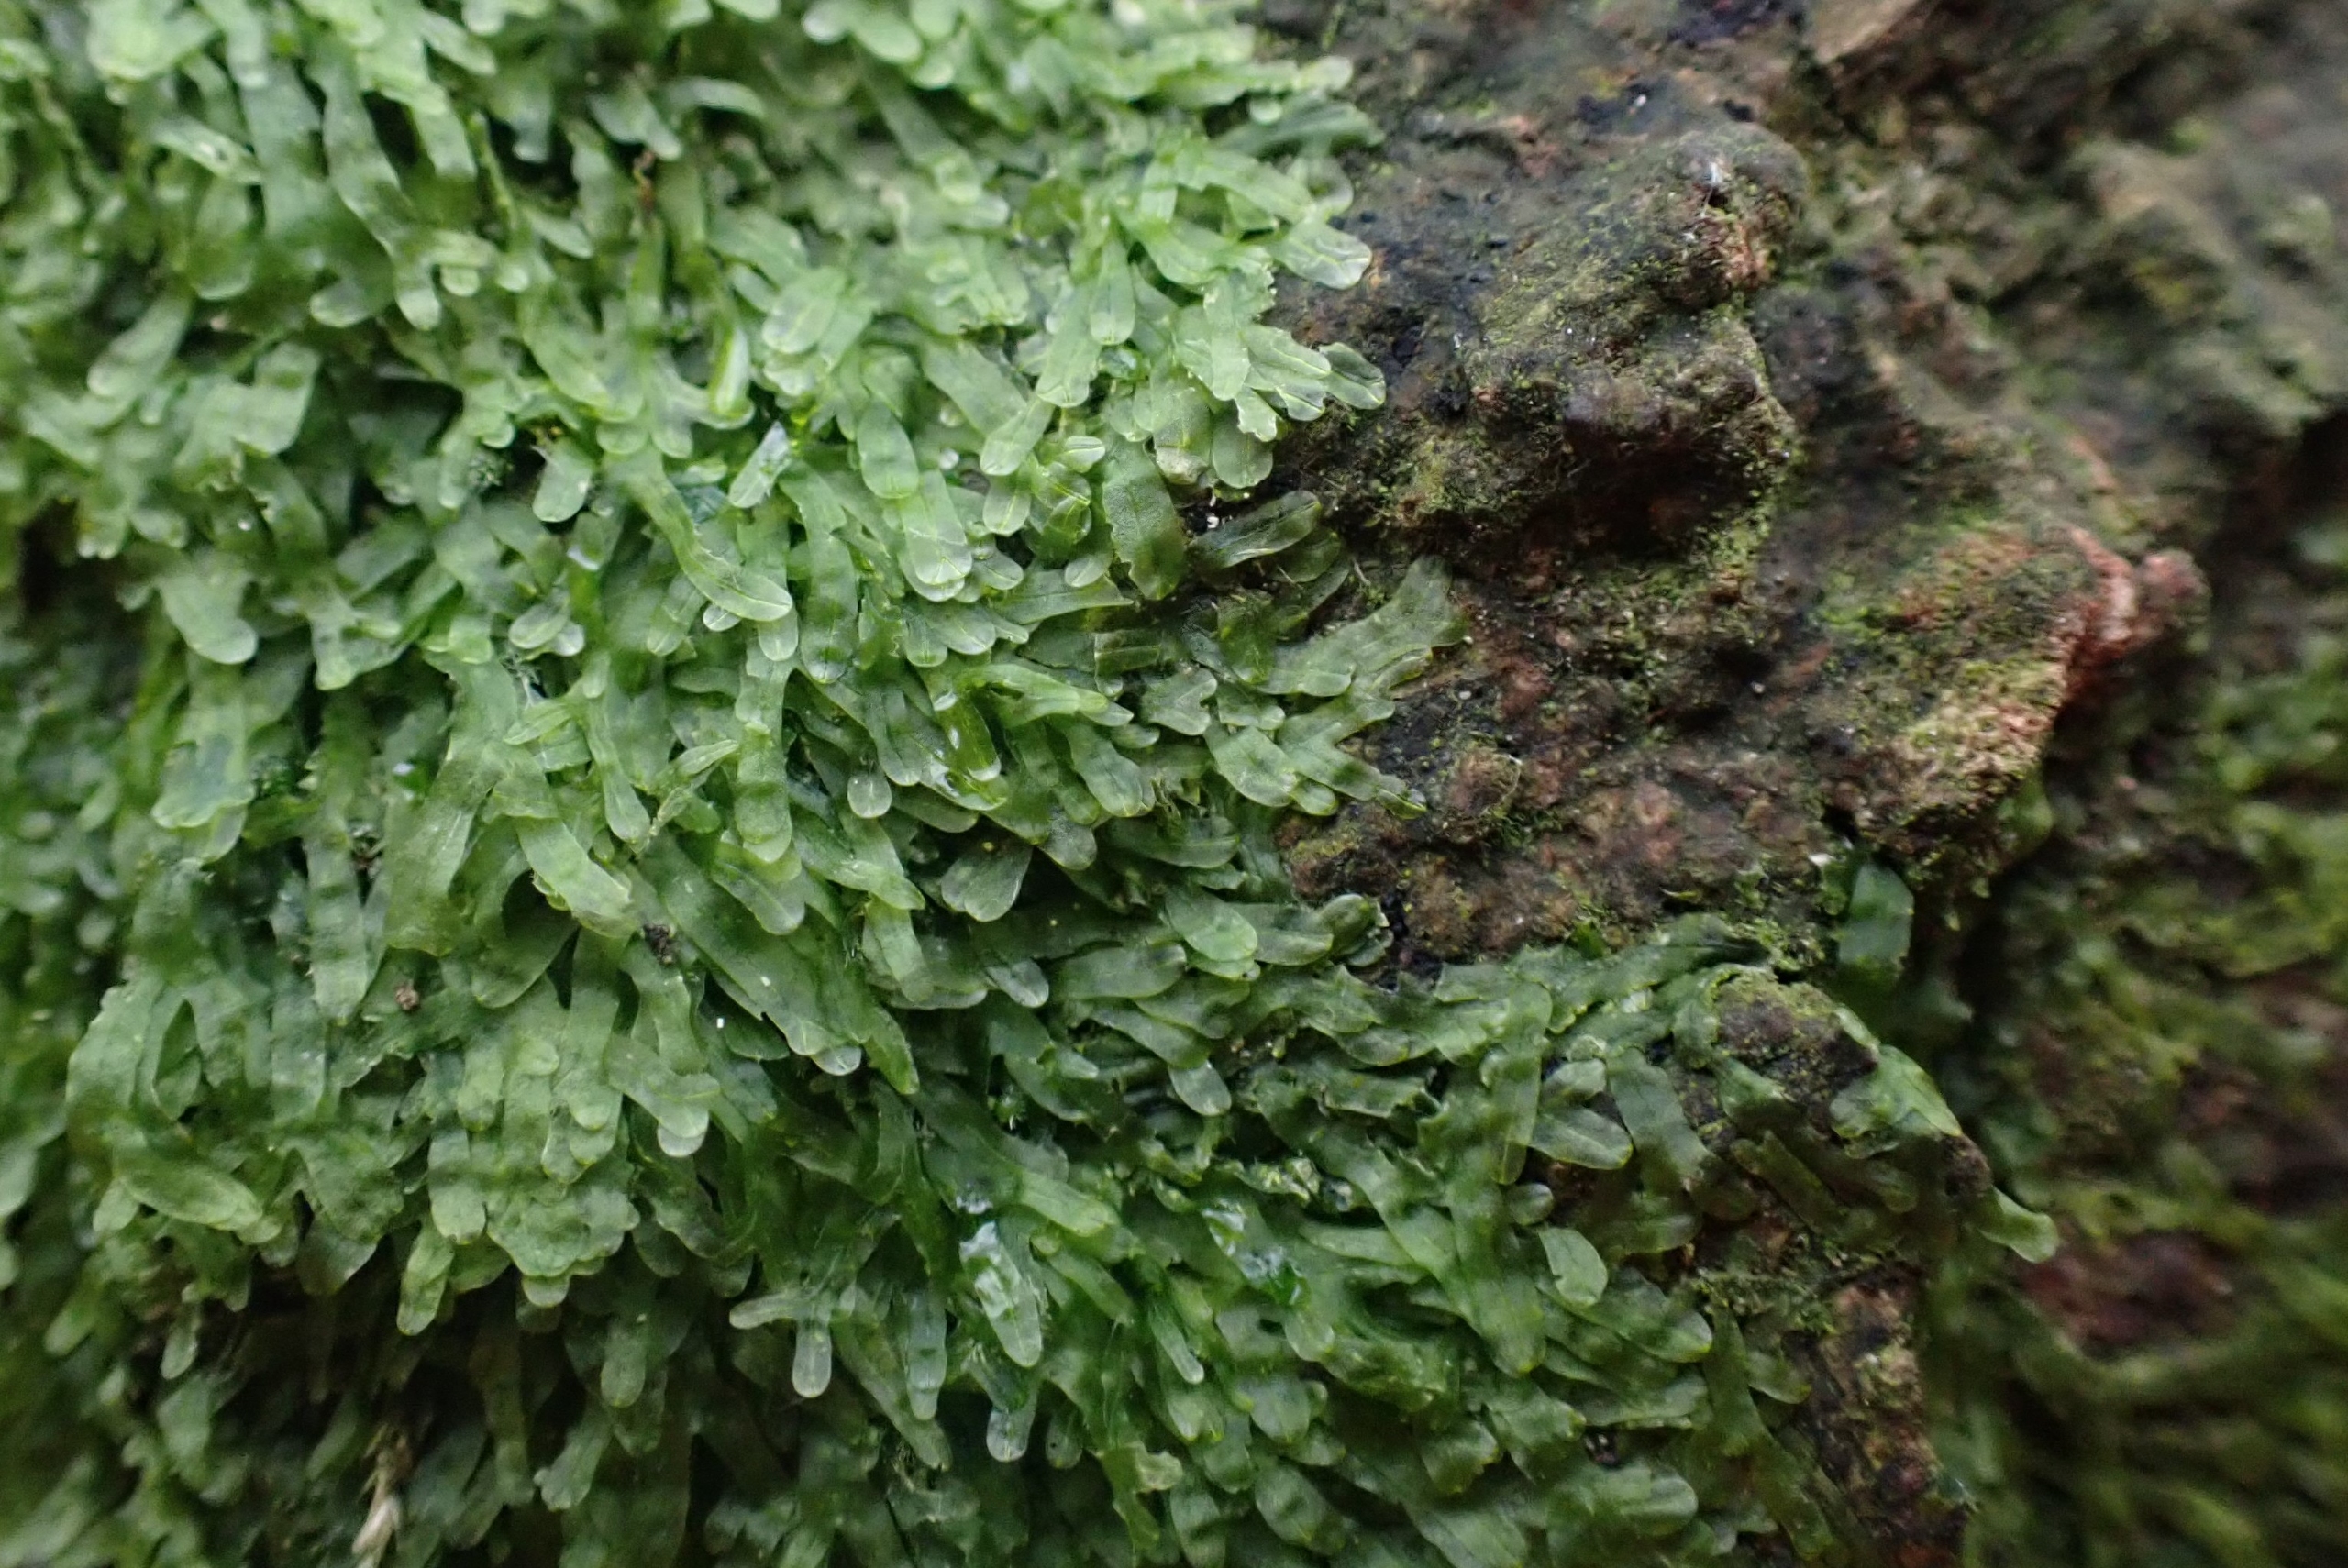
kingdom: Plantae
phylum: Marchantiophyta
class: Jungermanniopsida
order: Metzgeriales
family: Metzgeriaceae
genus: Metzgeria
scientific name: Metzgeria furcata
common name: Almindelig gaffelløv
